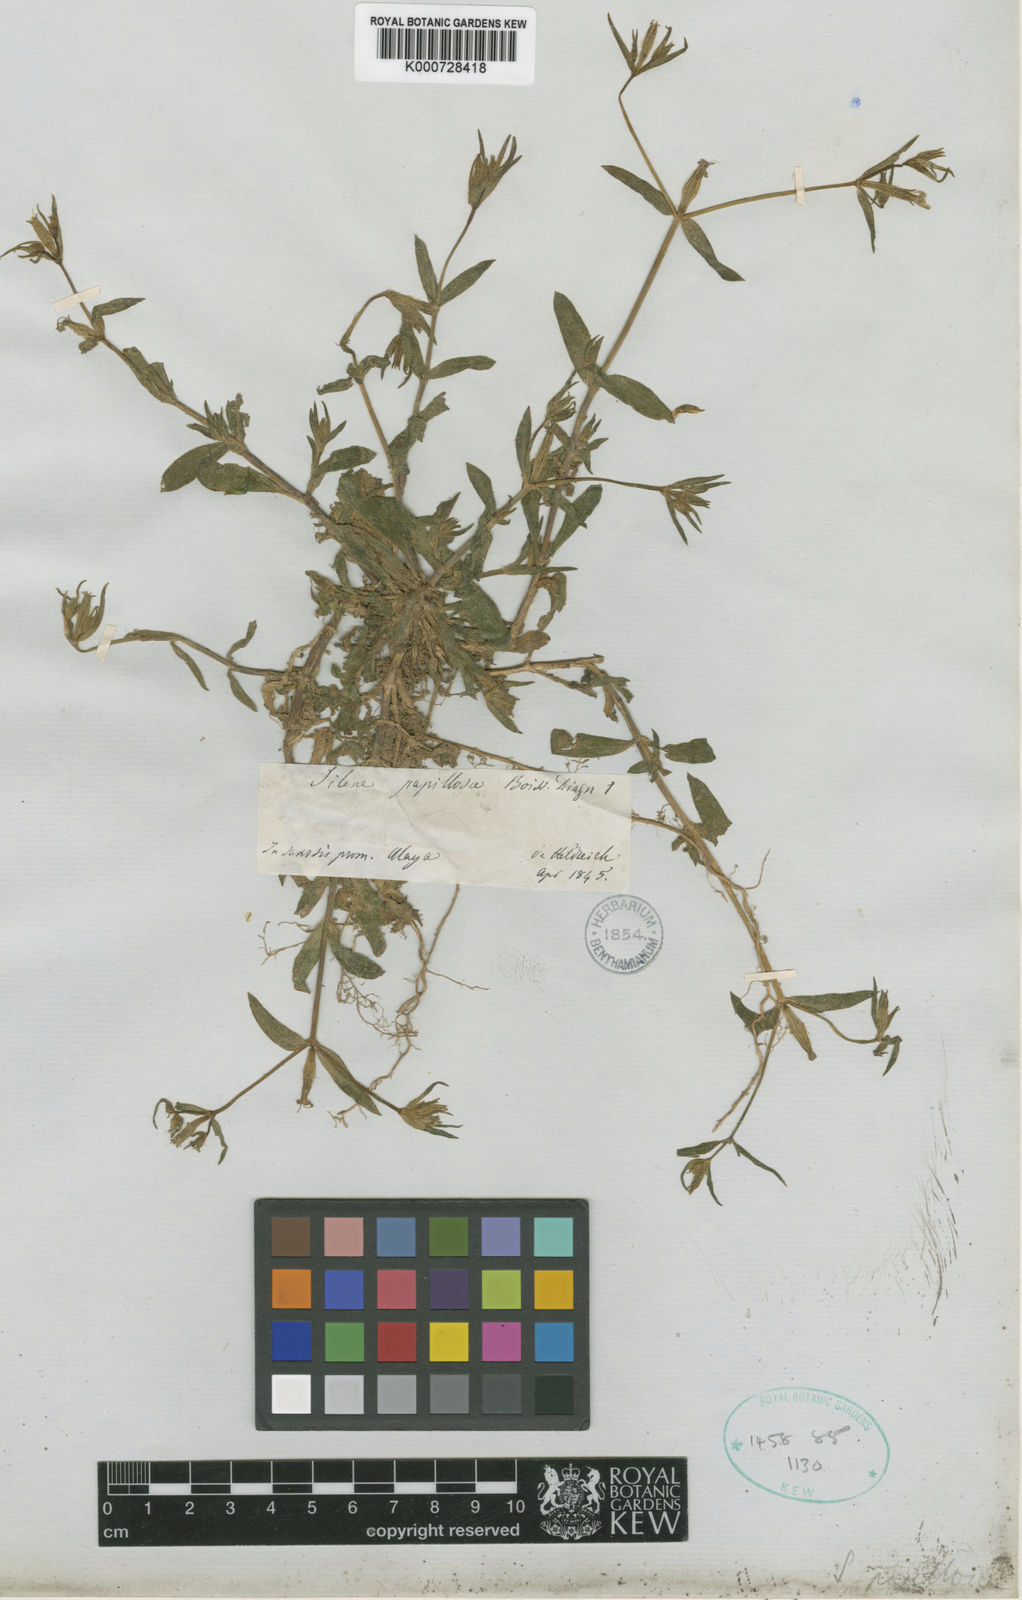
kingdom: Plantae
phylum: Tracheophyta
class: Magnoliopsida
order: Caryophyllales
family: Caryophyllaceae
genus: Silene
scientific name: Silene papillosa
